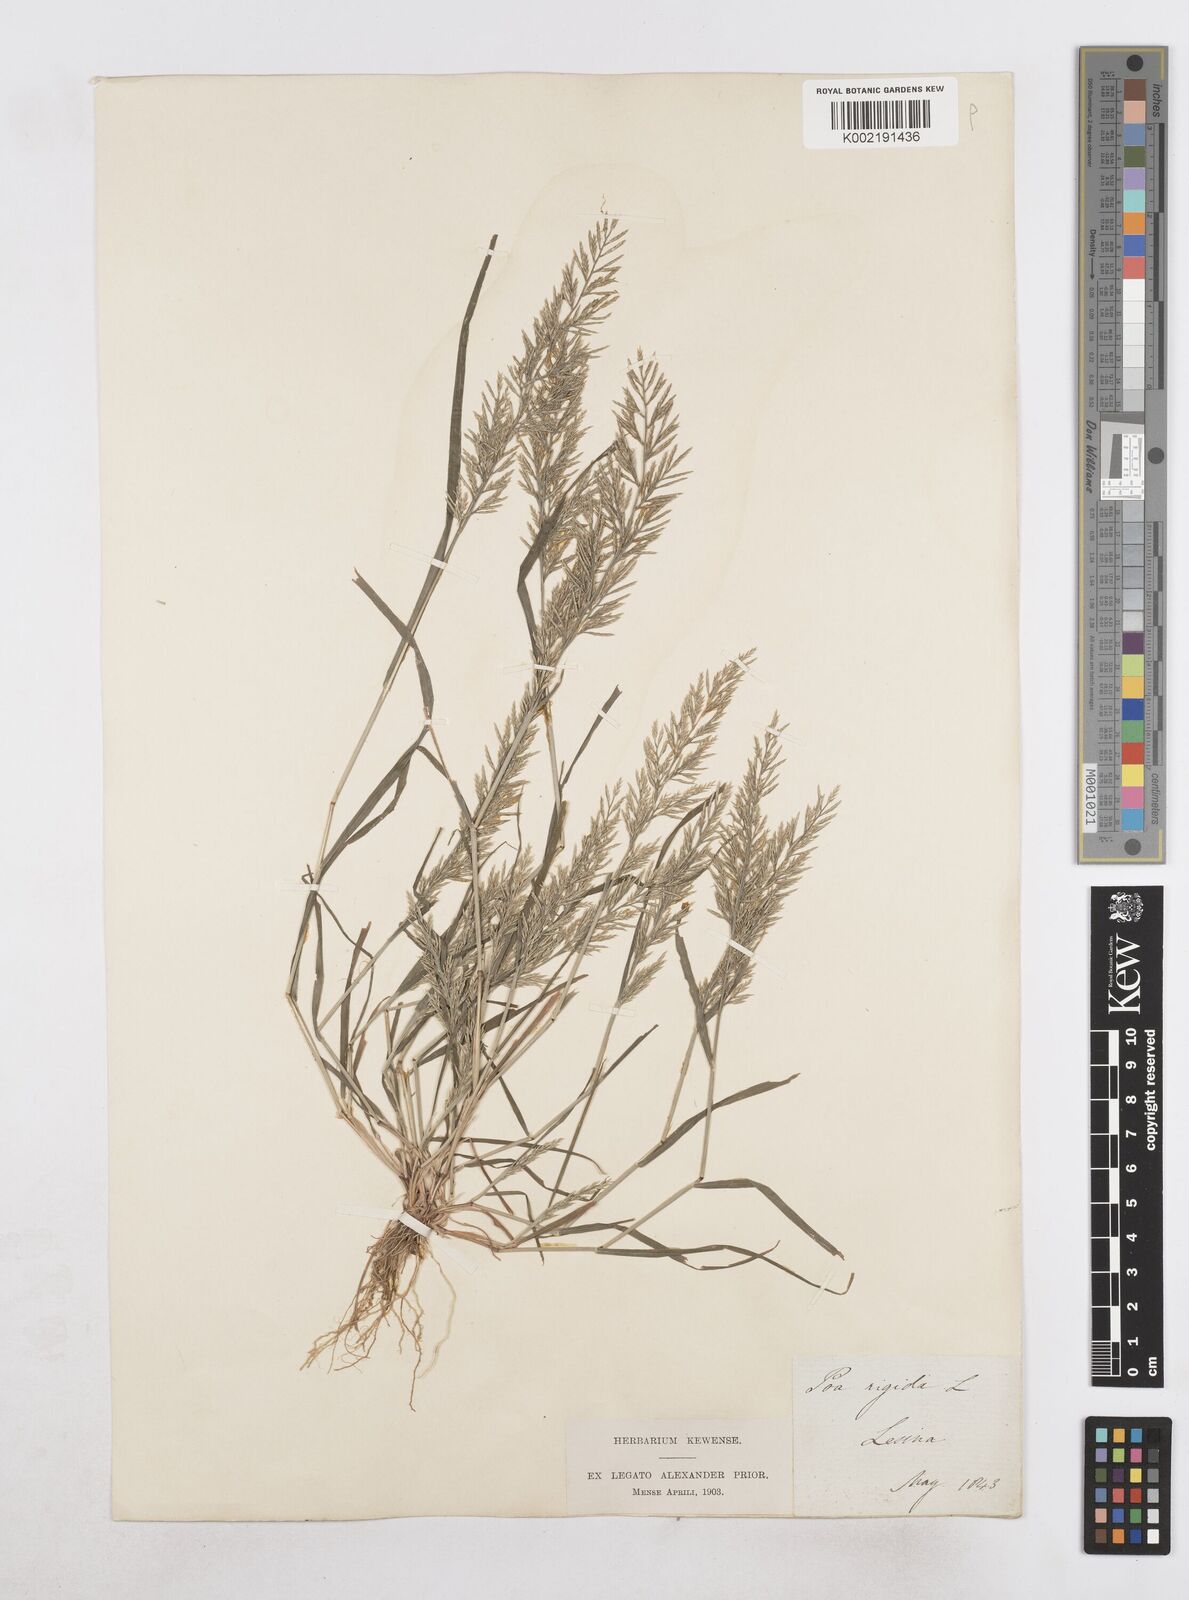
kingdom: Plantae
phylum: Tracheophyta
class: Liliopsida
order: Poales
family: Poaceae
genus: Catapodium
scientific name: Catapodium rigidum
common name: Fern-grass
